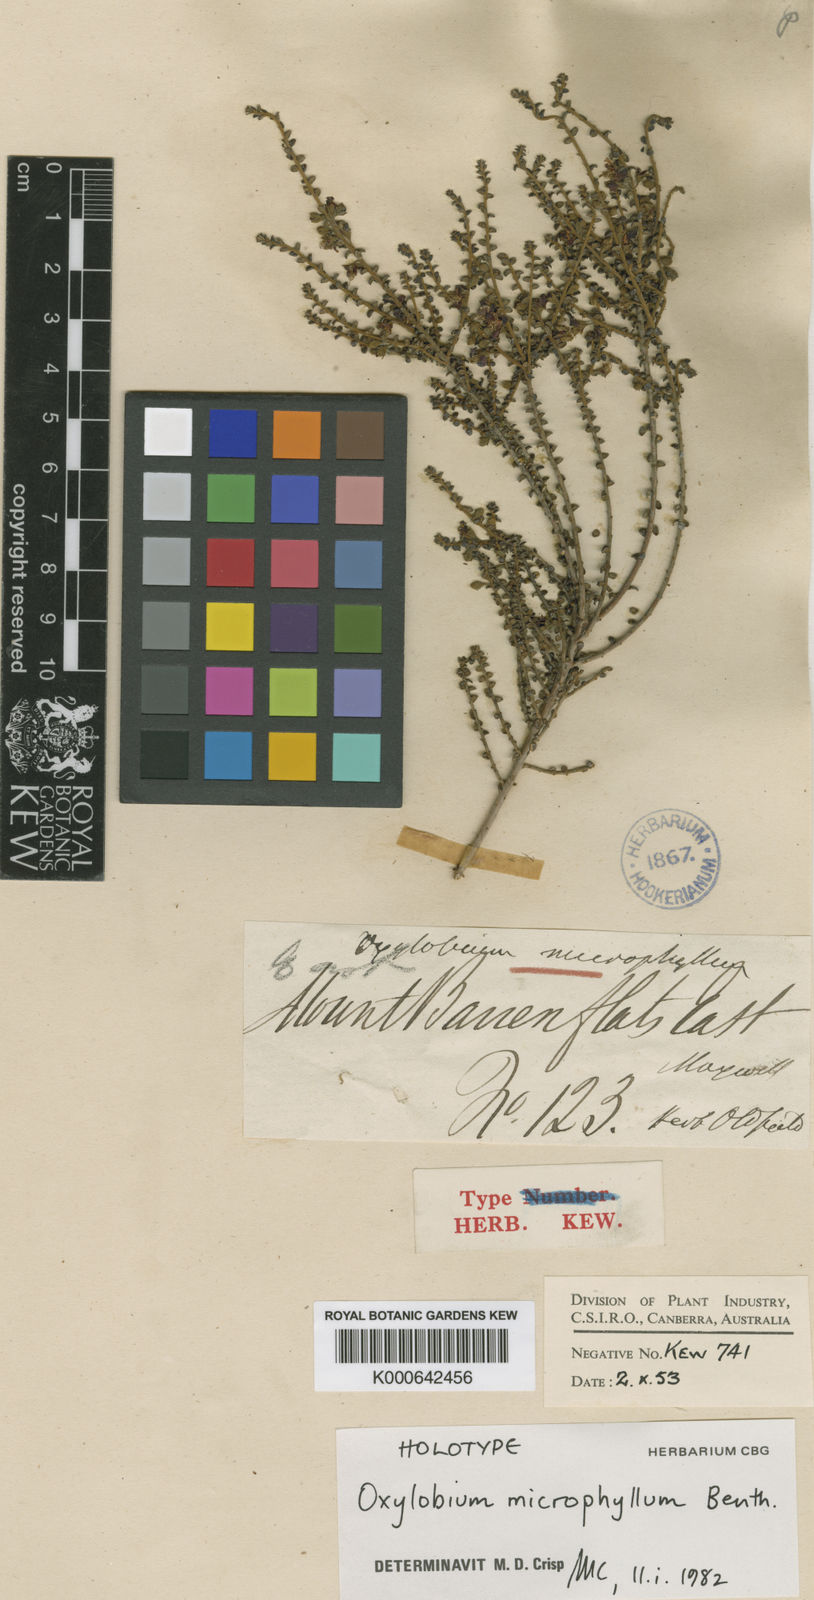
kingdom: Plantae
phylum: Tracheophyta
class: Magnoliopsida
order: Fabales
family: Fabaceae
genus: Oxylobium
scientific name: Oxylobium microphyllum
